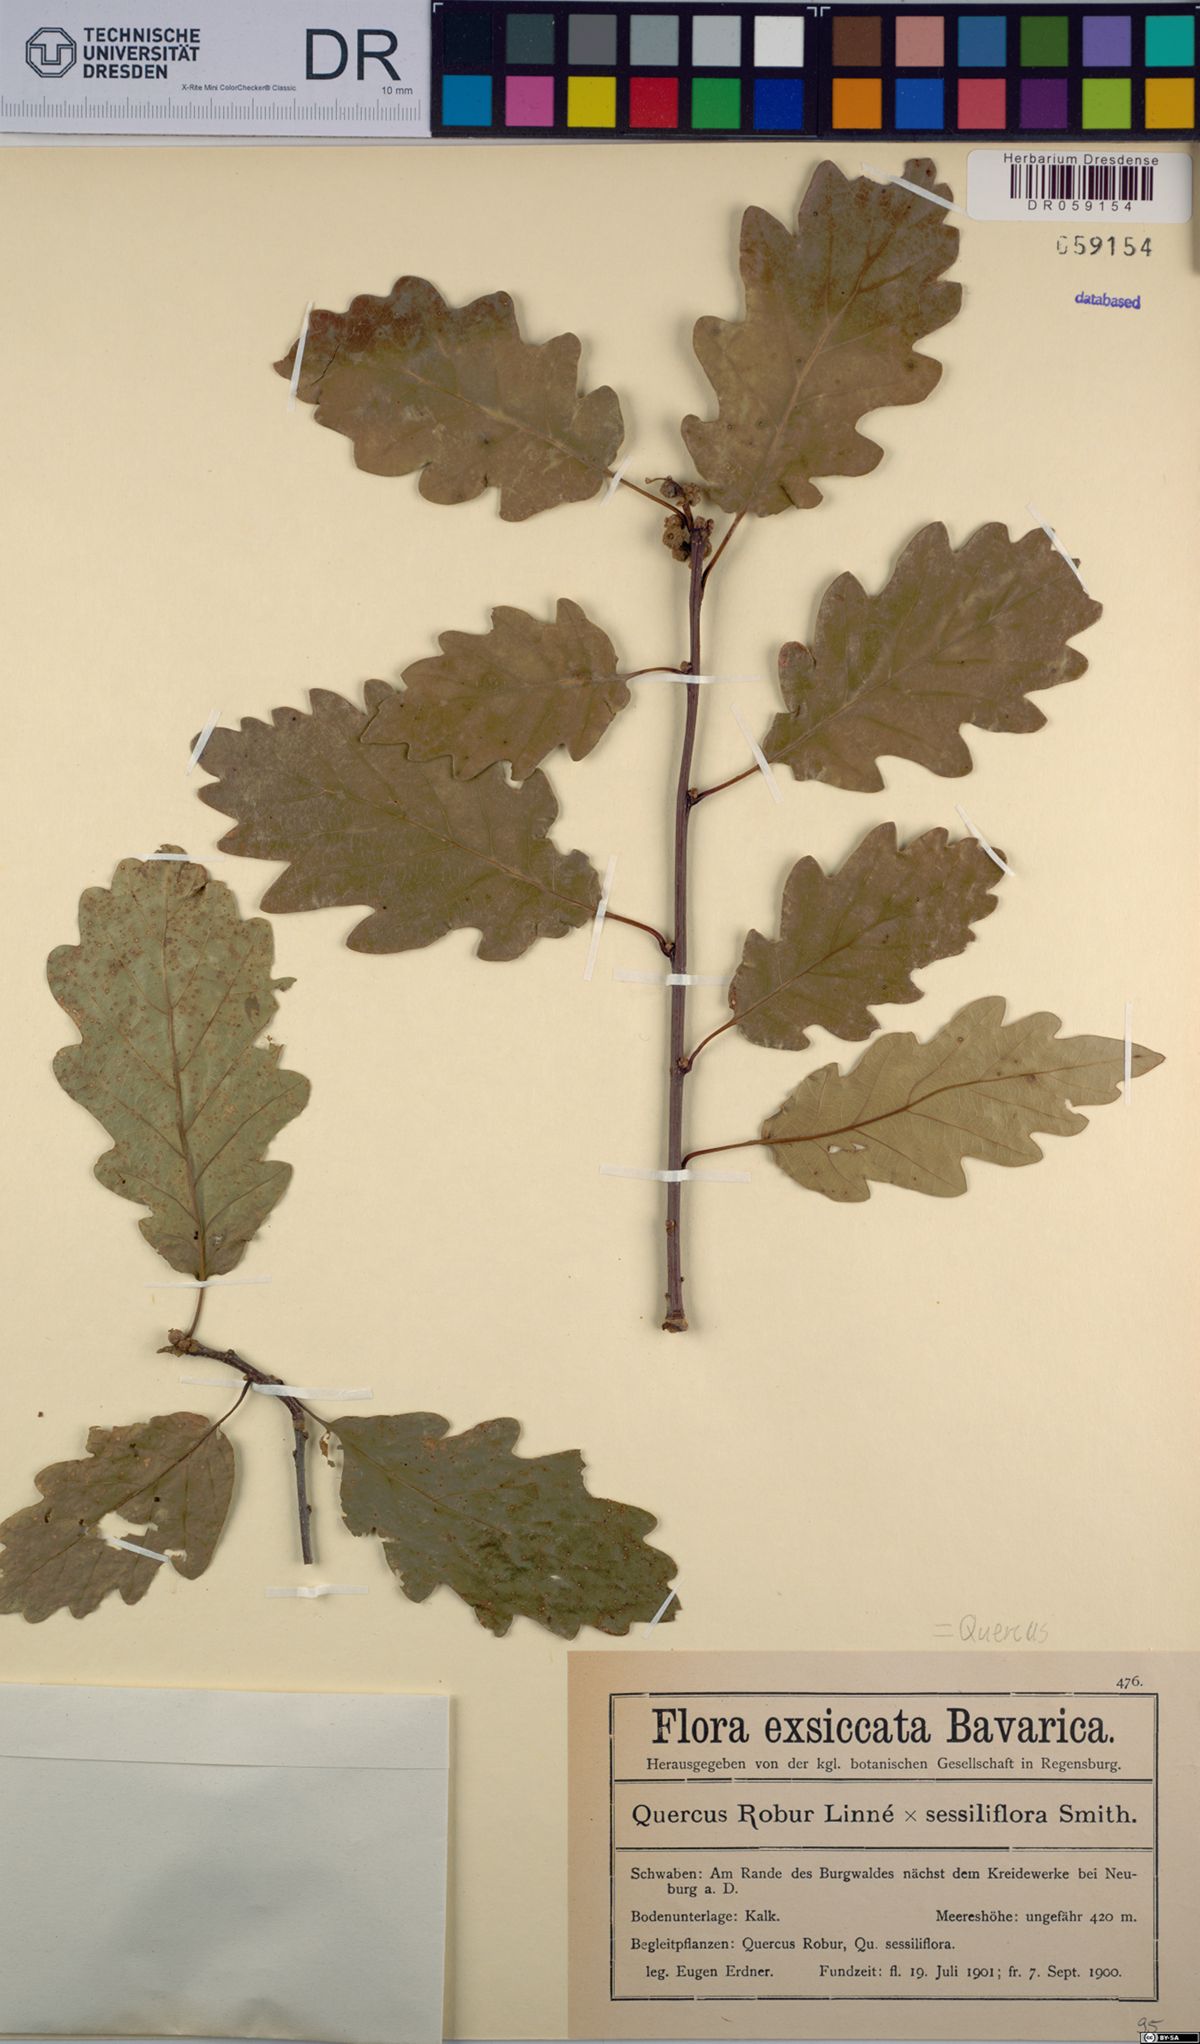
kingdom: Plantae
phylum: Tracheophyta
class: Magnoliopsida
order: Fagales
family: Fagaceae
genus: Quercus
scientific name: Quercus
